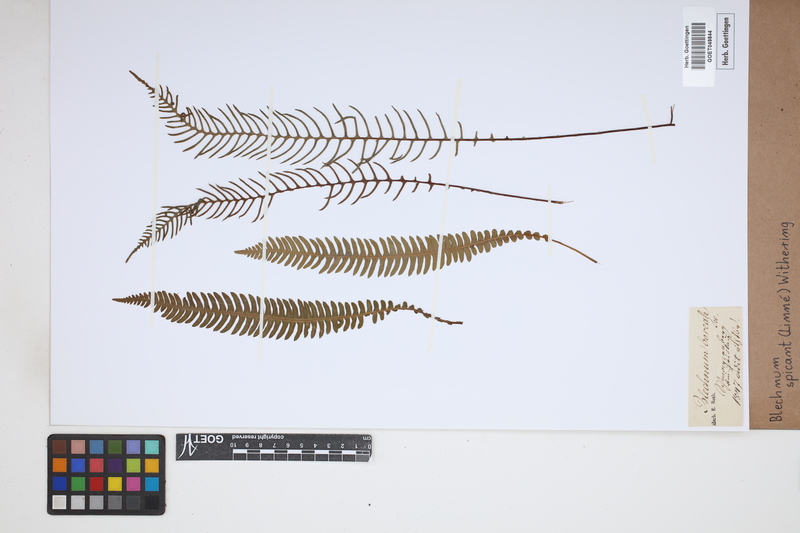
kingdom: Plantae
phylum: Tracheophyta
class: Polypodiopsida
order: Polypodiales
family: Blechnaceae
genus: Struthiopteris
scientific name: Struthiopteris spicant
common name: Deer fern
